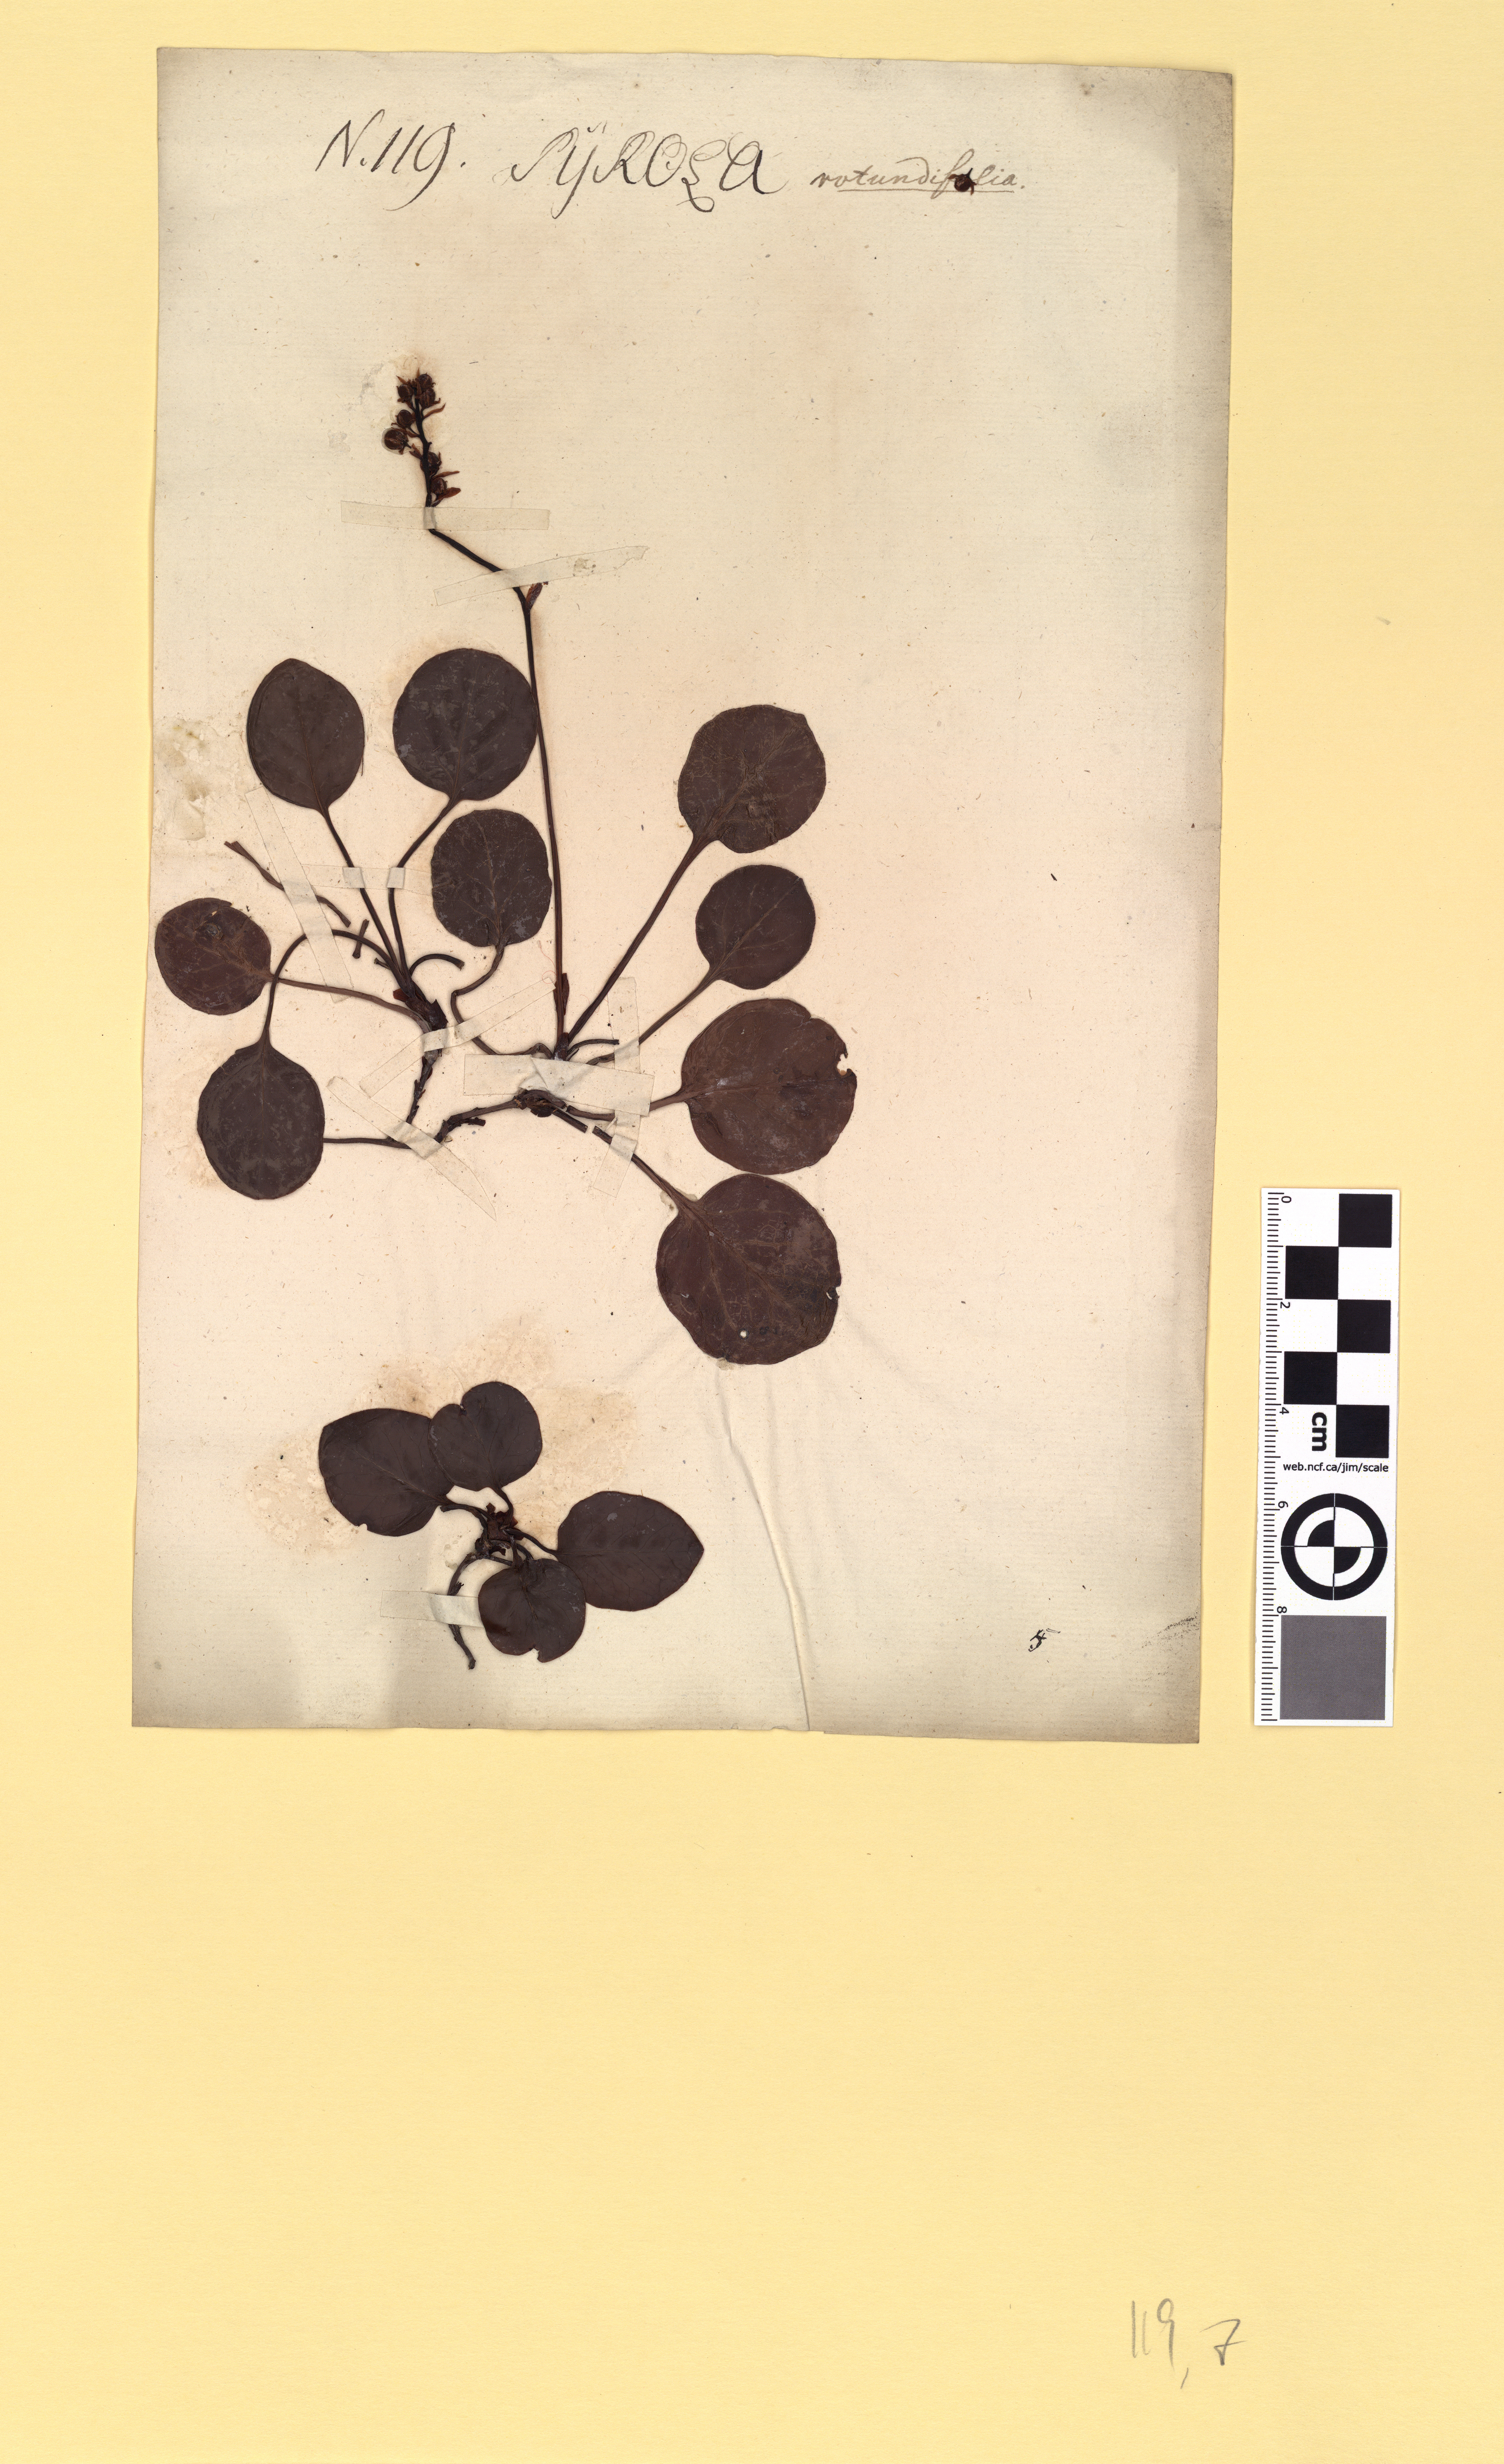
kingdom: Plantae
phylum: Tracheophyta
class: Magnoliopsida
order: Ericales
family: Ericaceae
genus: Pyrola
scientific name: Pyrola rotundifolia
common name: Round-leaved wintergreen
